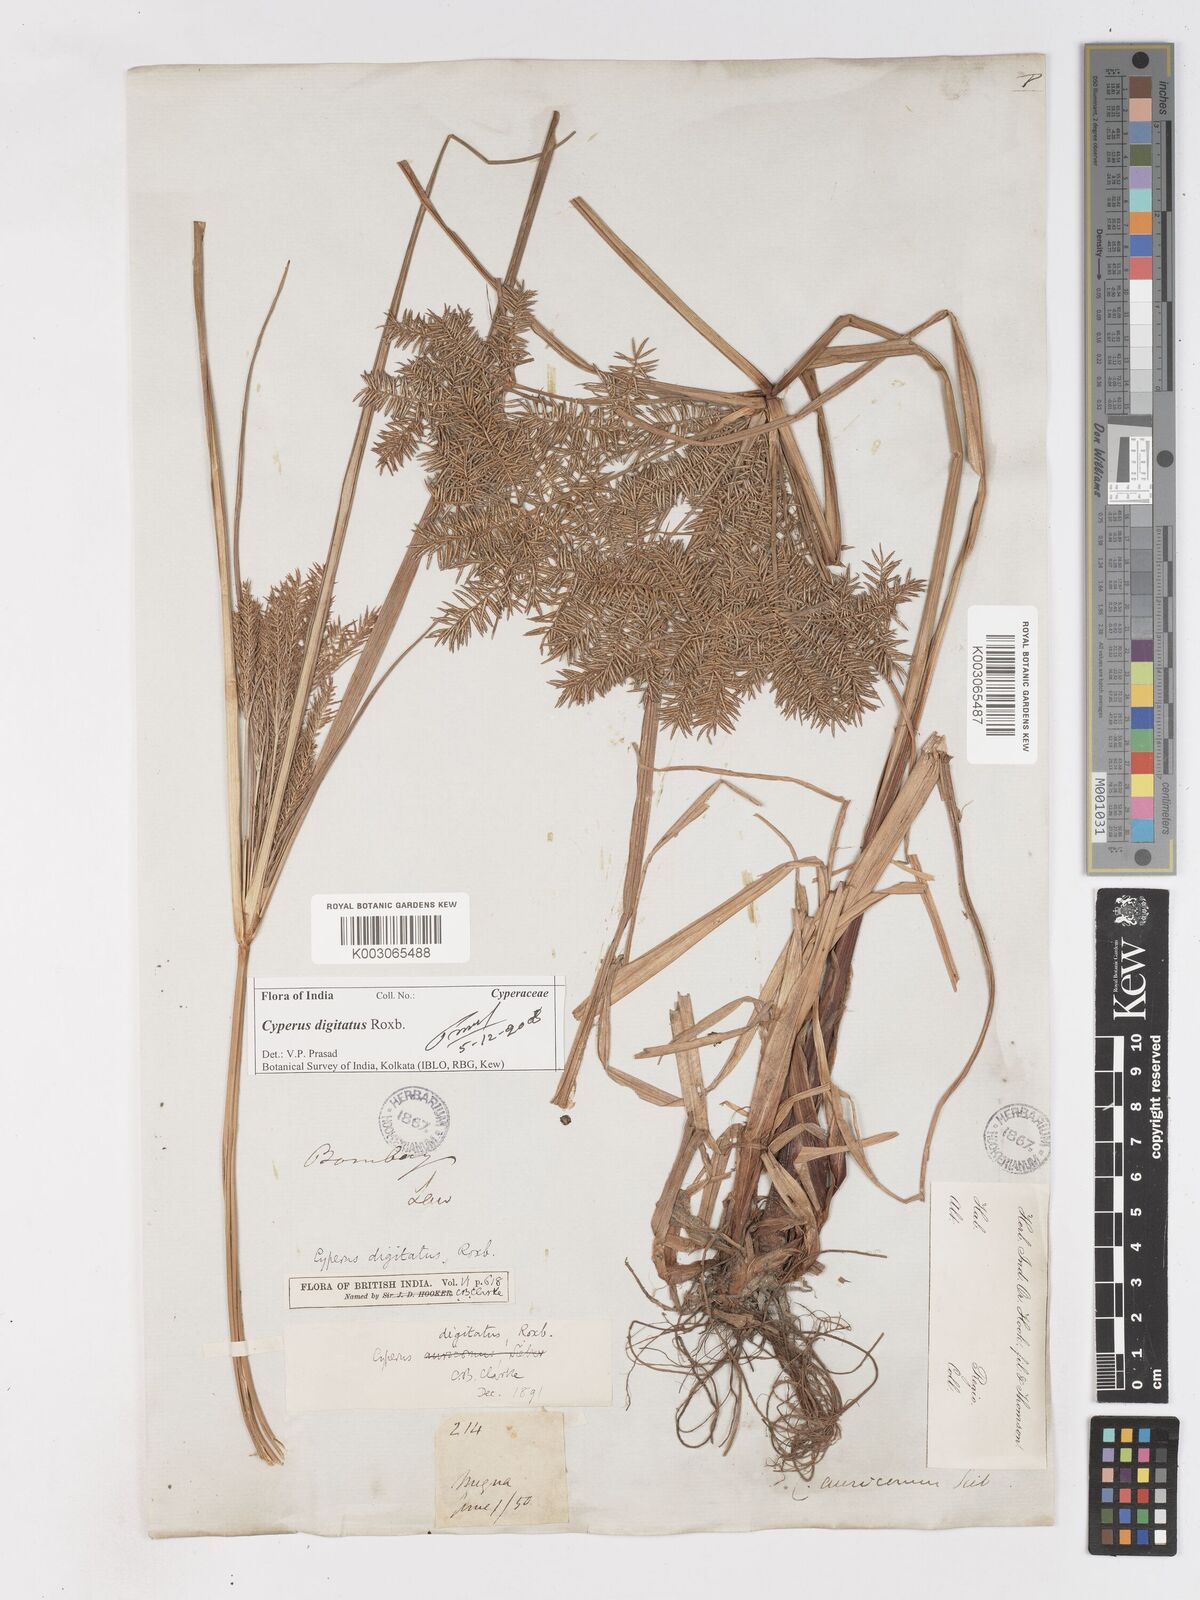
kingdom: Plantae
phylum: Tracheophyta
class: Liliopsida
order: Poales
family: Cyperaceae
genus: Cyperus
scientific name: Cyperus digitatus
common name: Finger flatsedge
